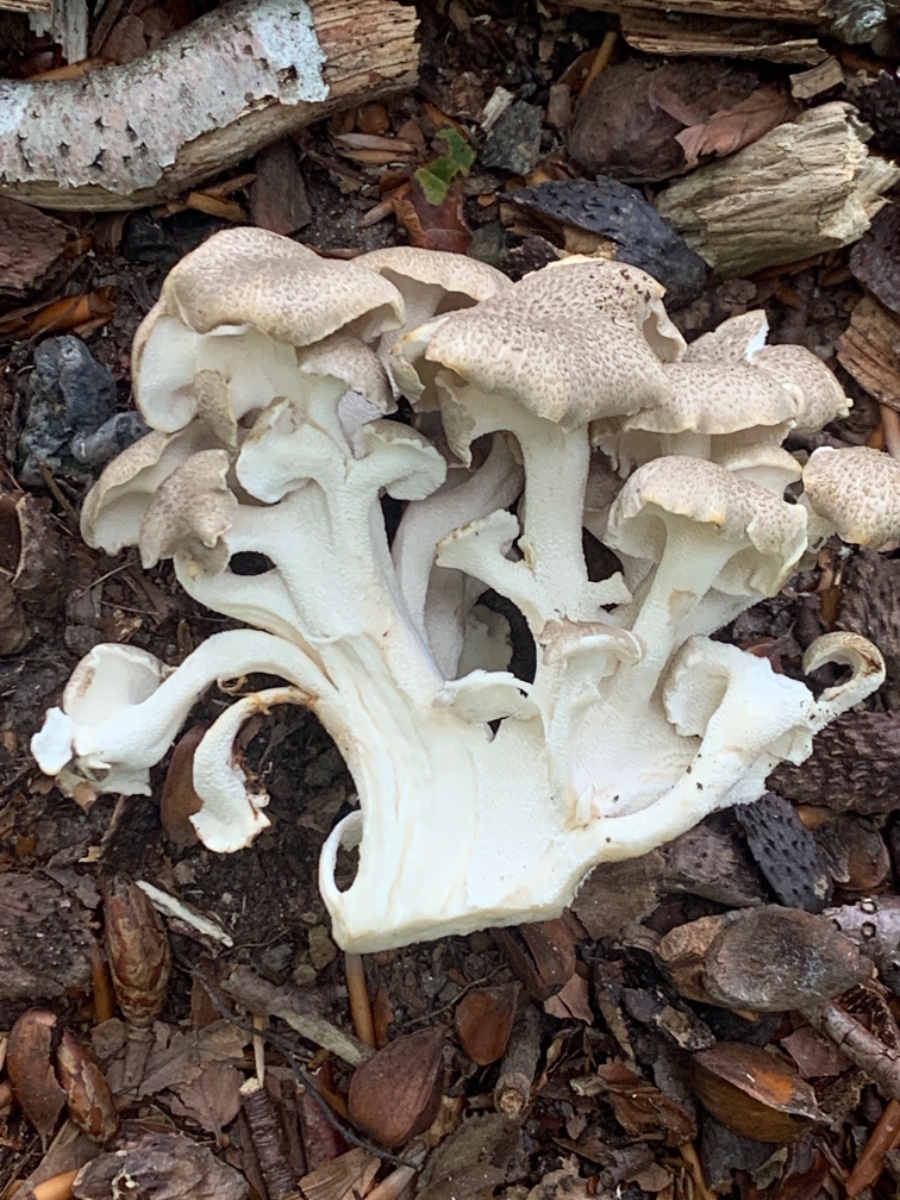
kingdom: Fungi
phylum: Basidiomycota
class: Agaricomycetes
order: Polyporales
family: Polyporaceae
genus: Polyporus
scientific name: Polyporus umbellatus
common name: skærmformet stilkporesvamp
